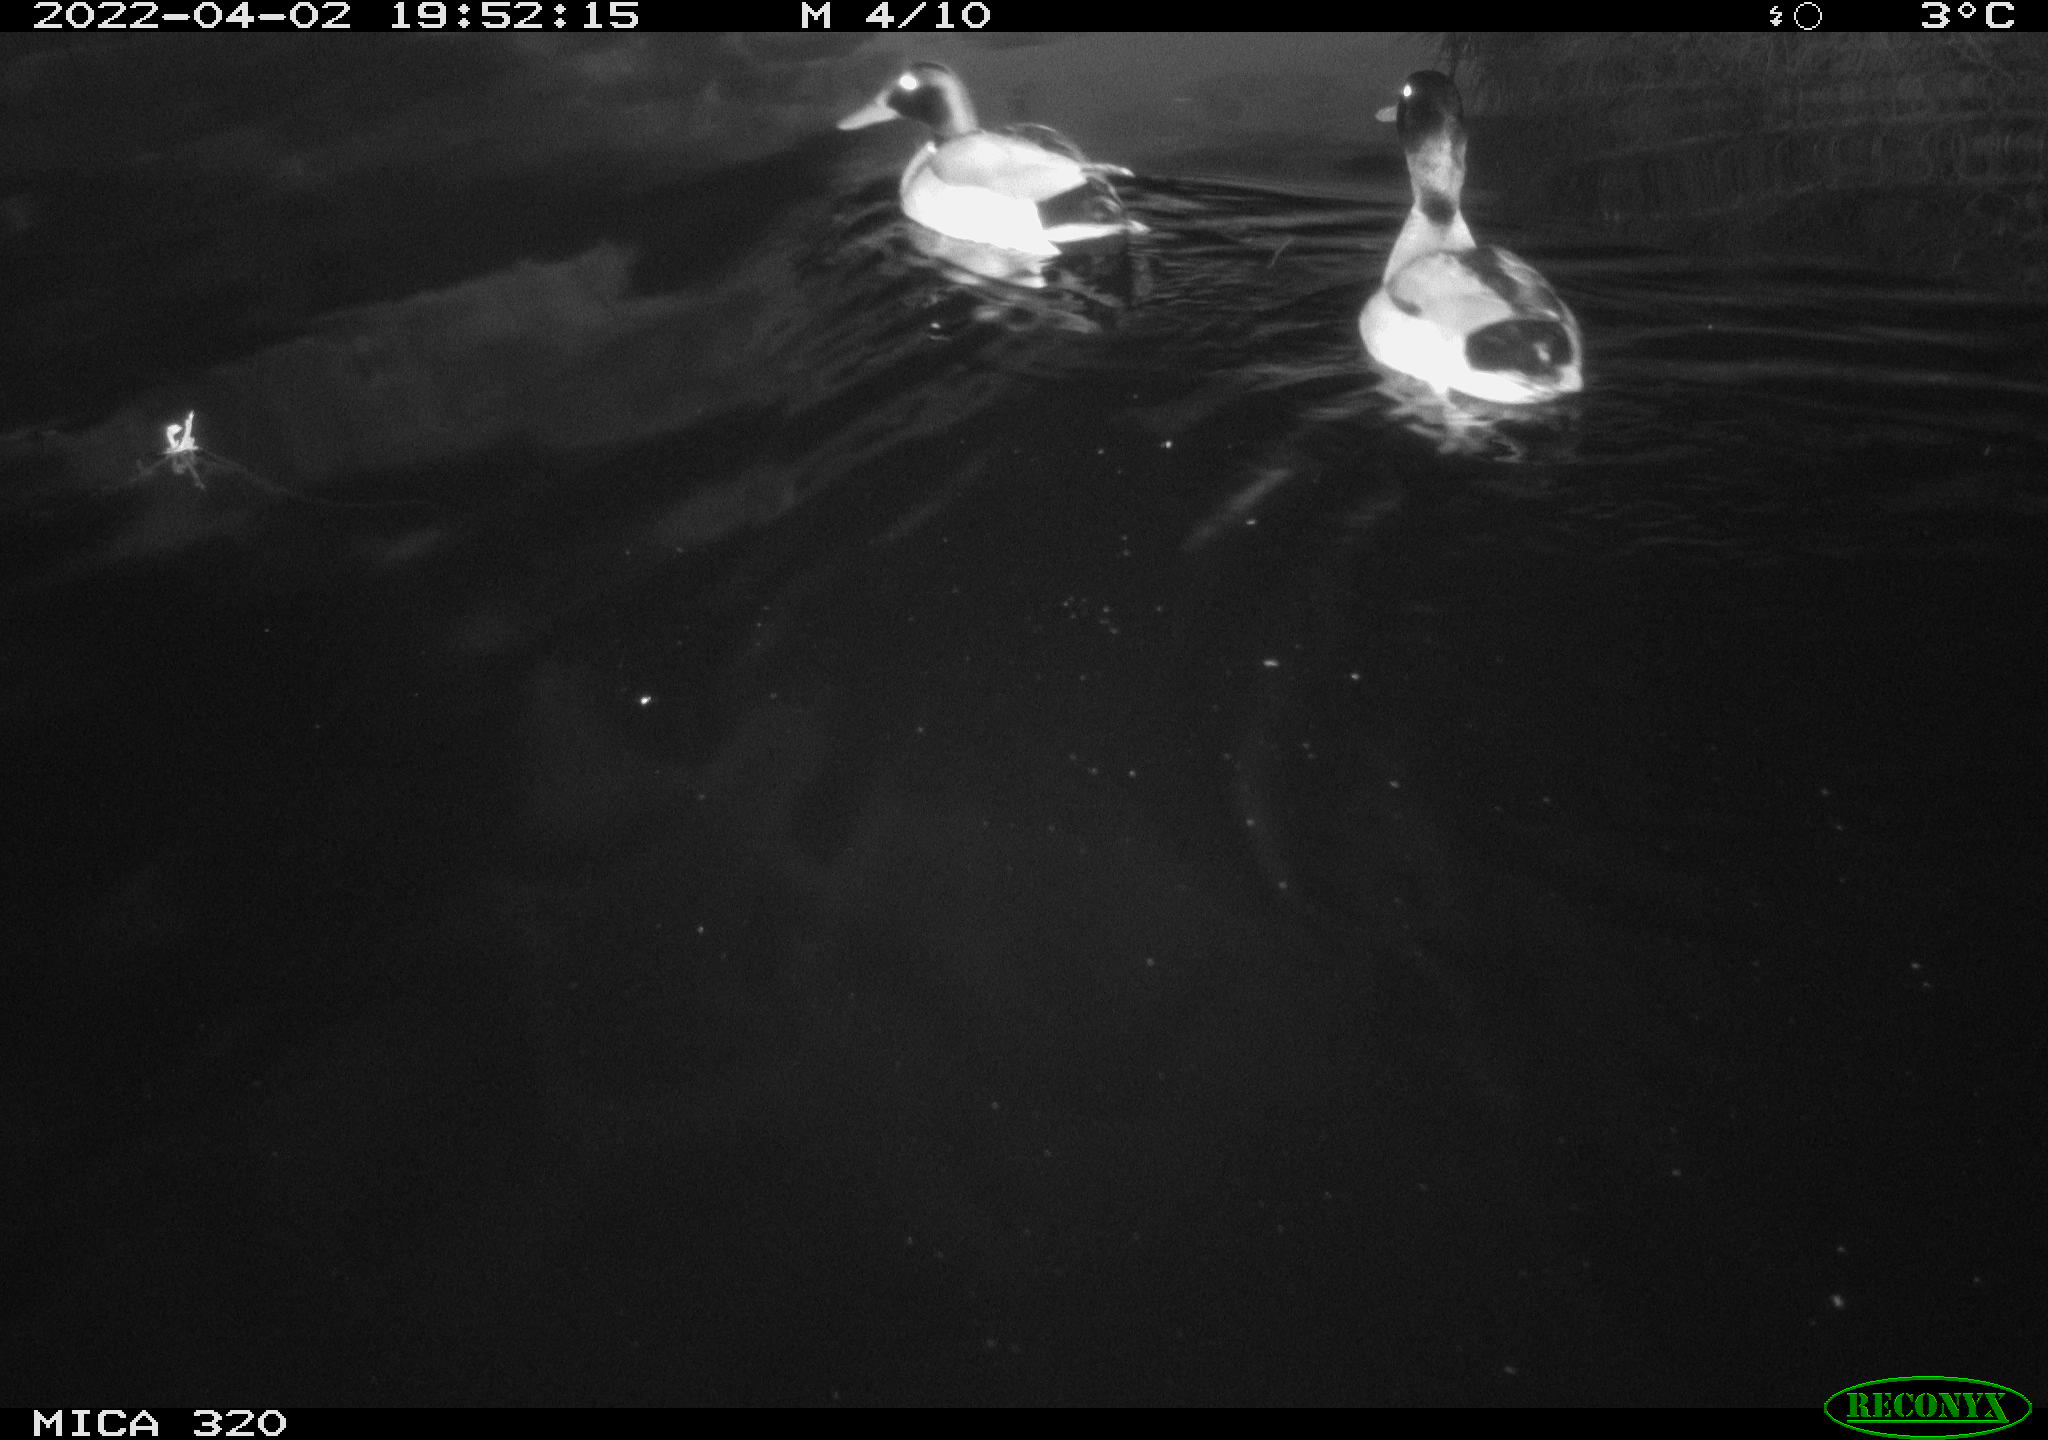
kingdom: Animalia
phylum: Chordata
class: Aves
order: Anseriformes
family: Anatidae
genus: Anas
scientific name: Anas platyrhynchos
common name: Mallard
